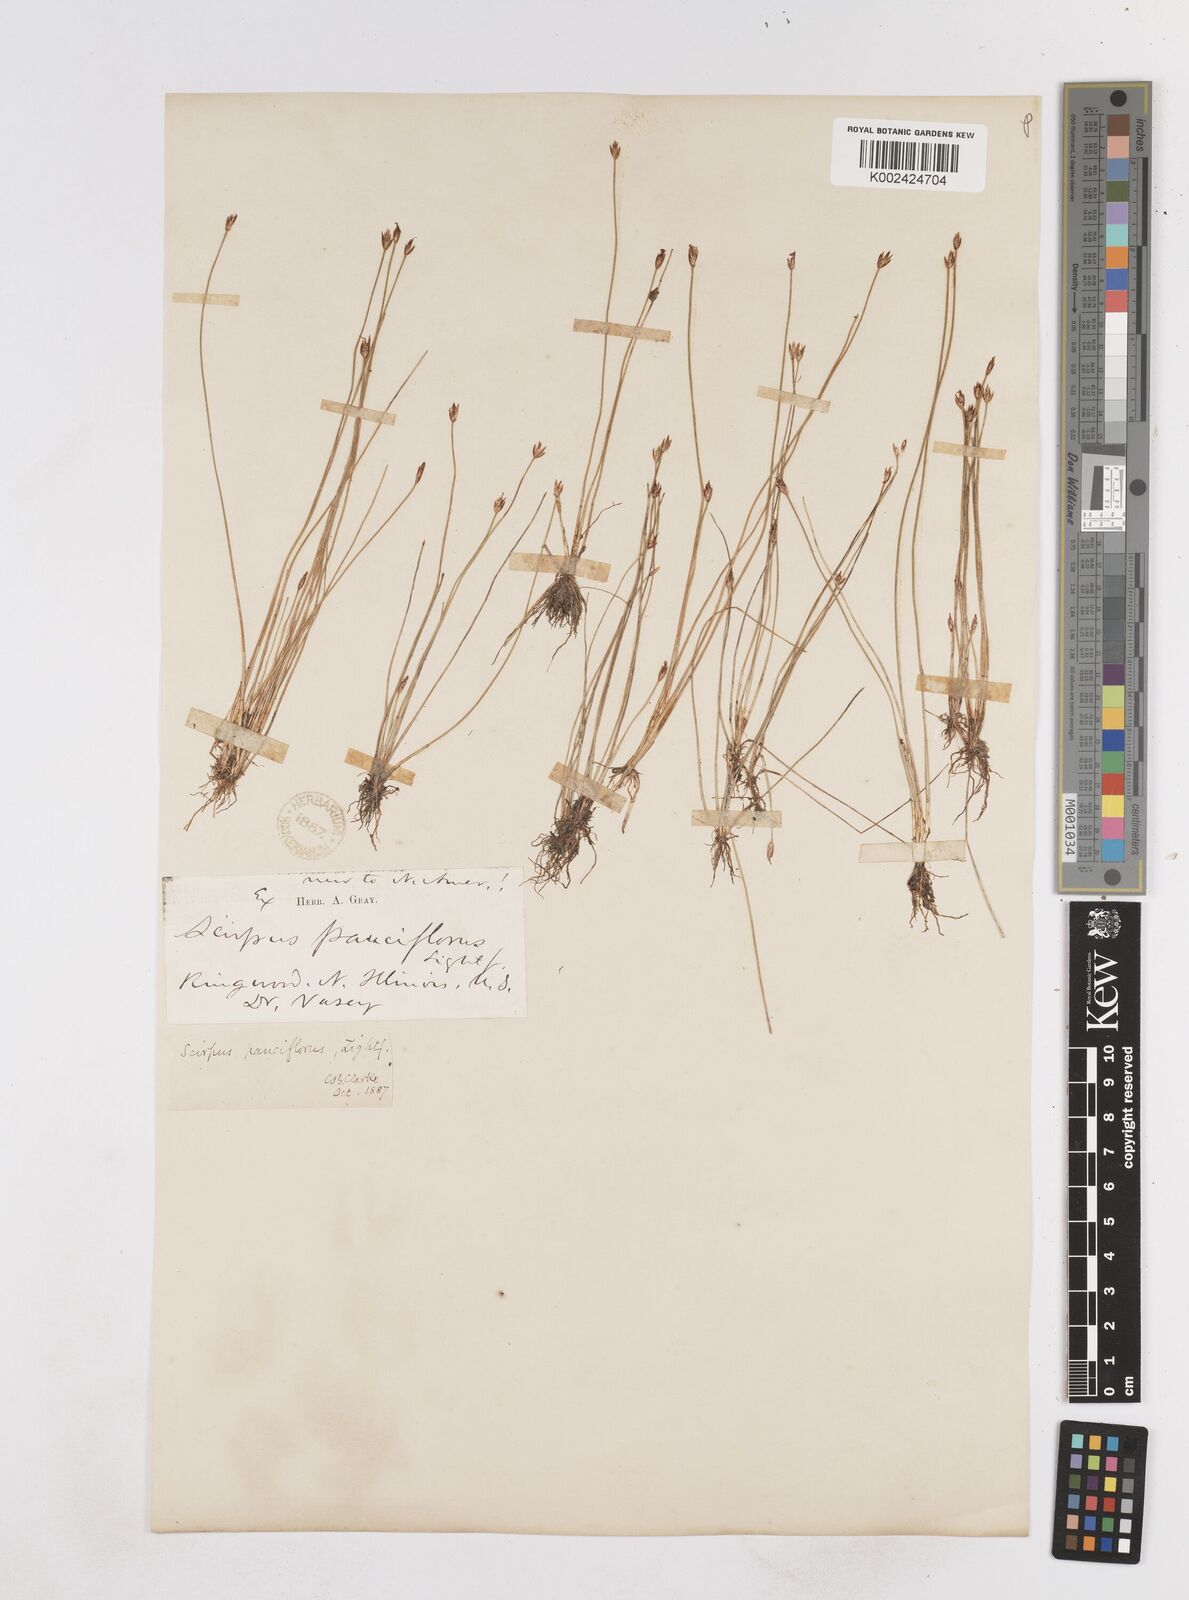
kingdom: Plantae
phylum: Tracheophyta
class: Liliopsida
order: Poales
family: Cyperaceae
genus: Eleocharis
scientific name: Eleocharis quinqueflora
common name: Few-flowered spike-rush
